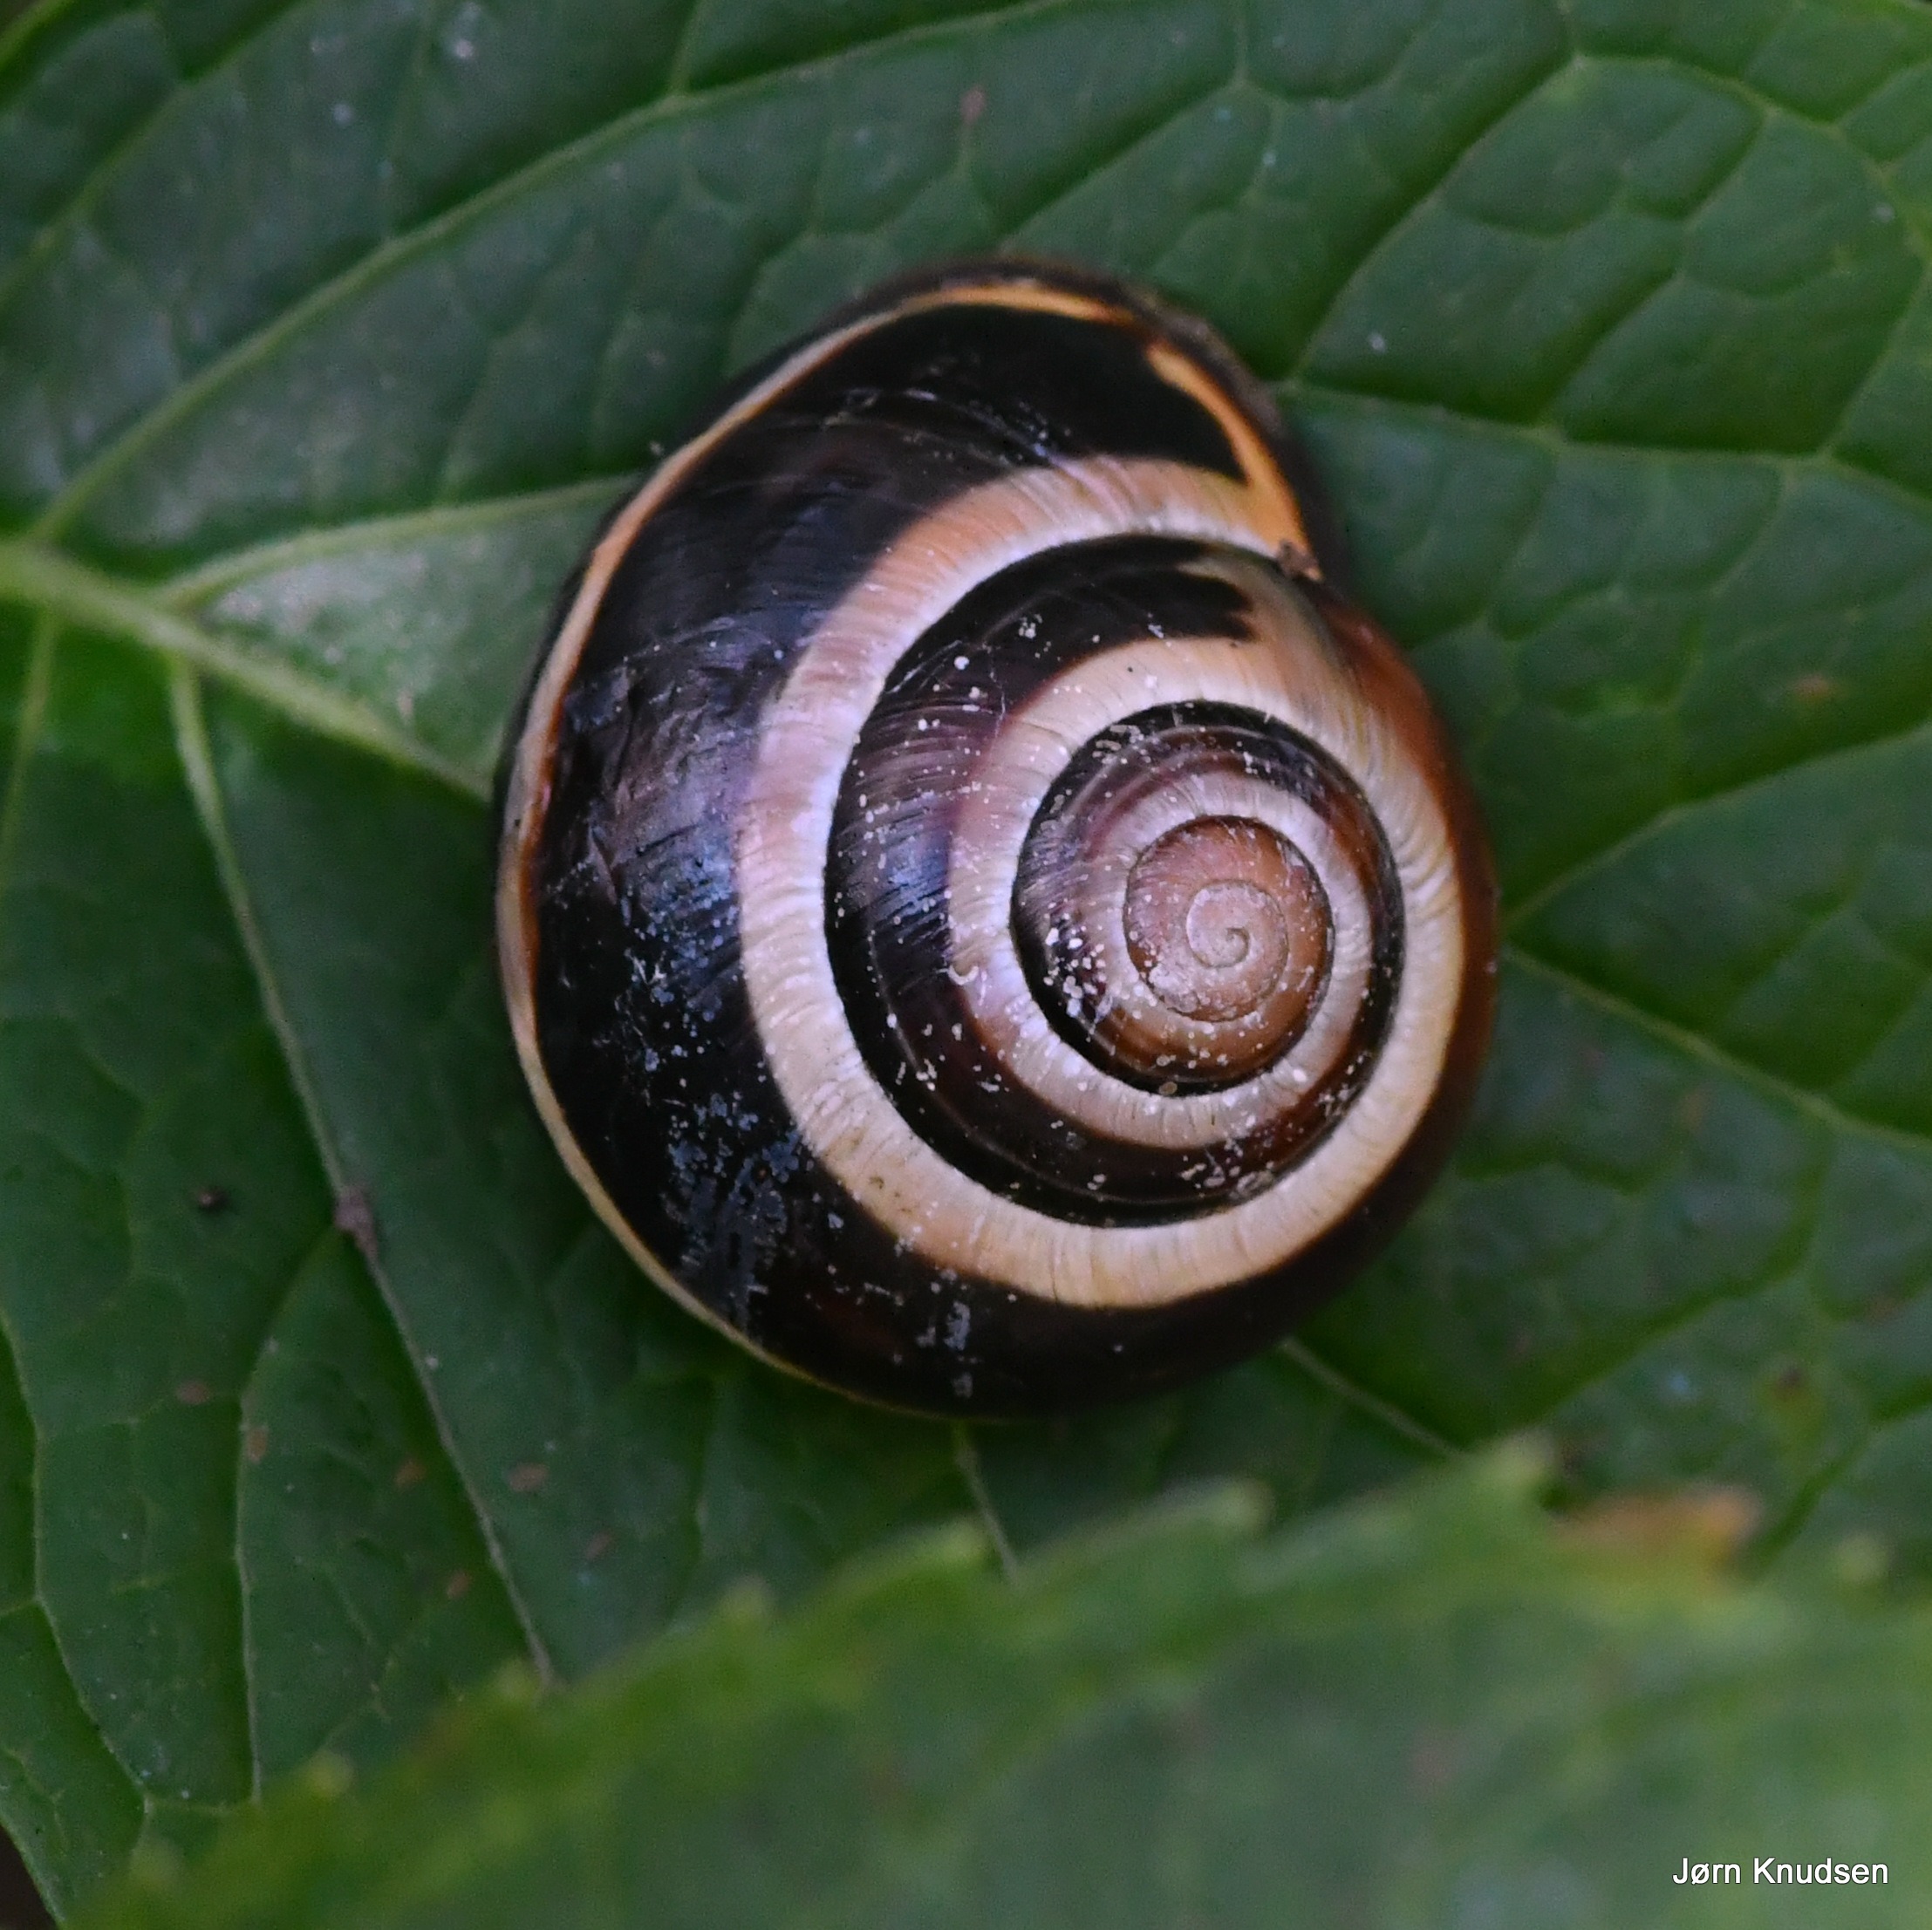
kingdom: Animalia
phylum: Mollusca
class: Gastropoda
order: Stylommatophora
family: Helicidae
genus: Cepaea
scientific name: Cepaea nemoralis
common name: Lundsnegl
